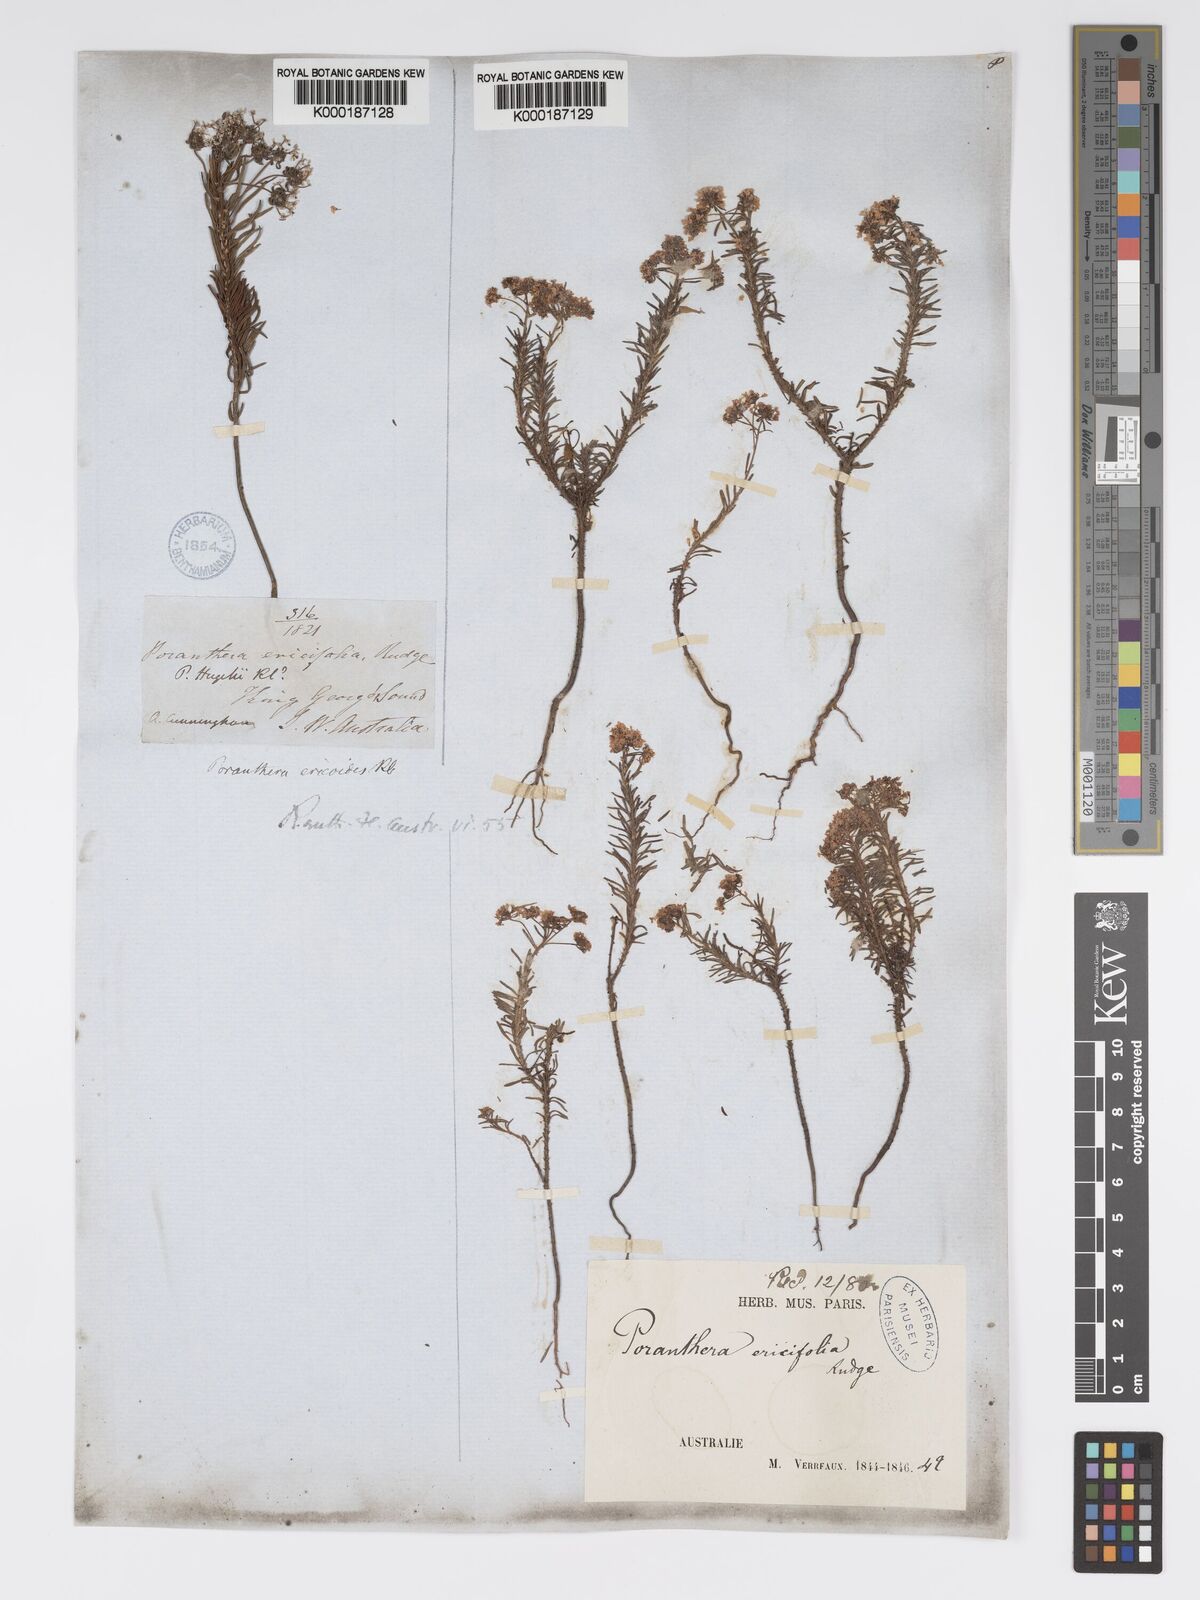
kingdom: Plantae
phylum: Tracheophyta
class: Magnoliopsida
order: Malpighiales
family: Phyllanthaceae
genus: Poranthera
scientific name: Poranthera ericifolia
